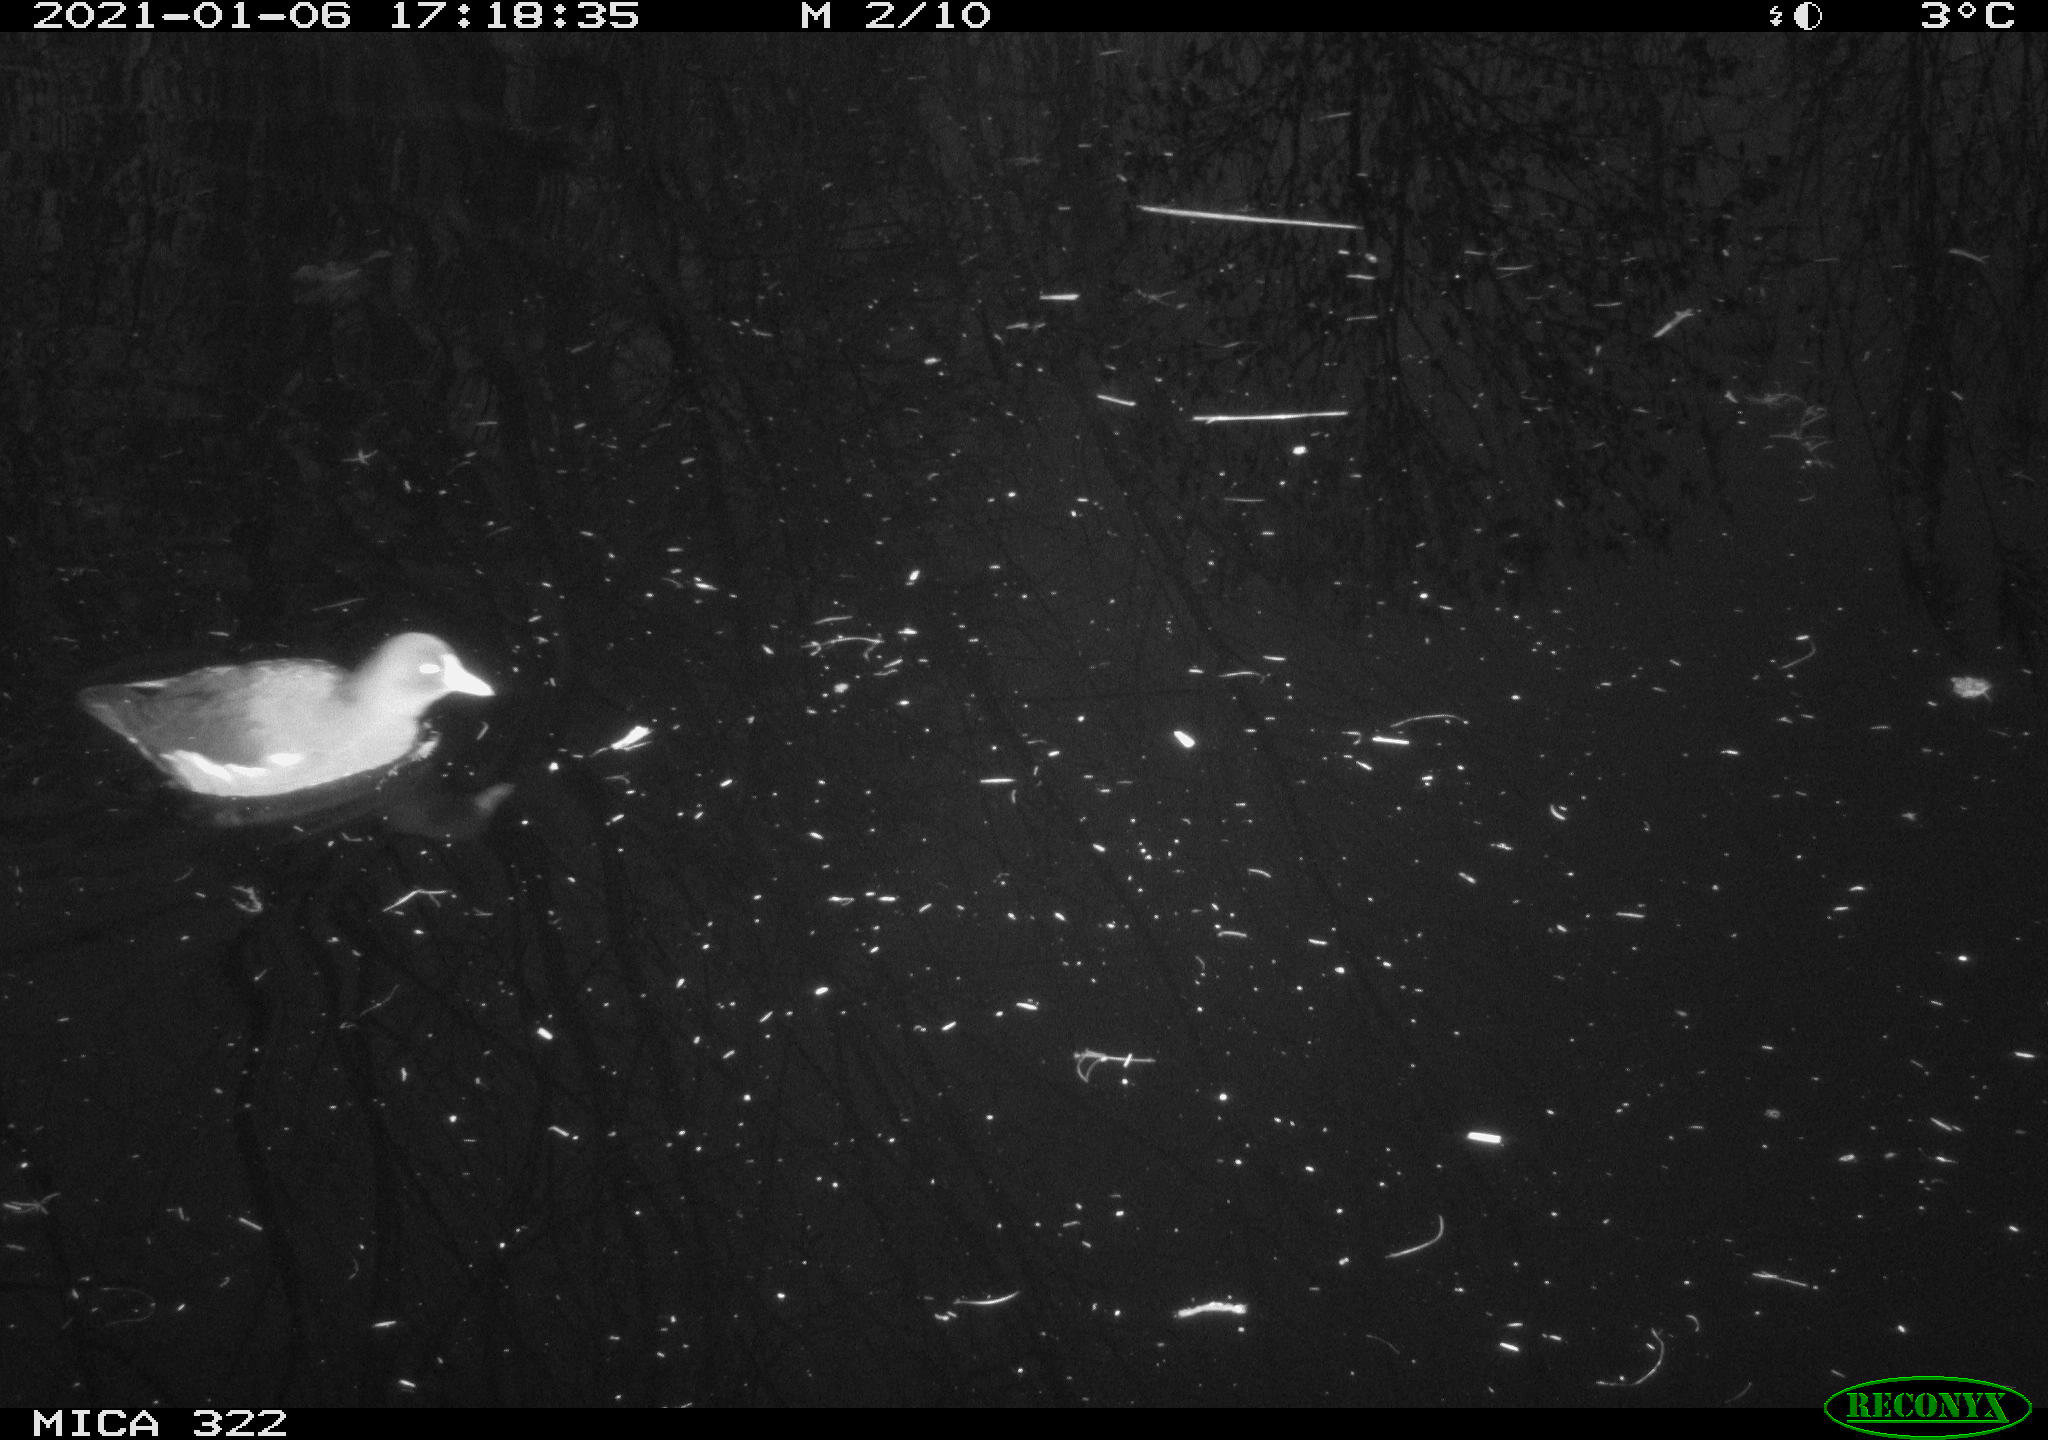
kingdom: Animalia
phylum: Chordata
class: Aves
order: Gruiformes
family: Rallidae
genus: Gallinula
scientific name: Gallinula chloropus
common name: Common moorhen
